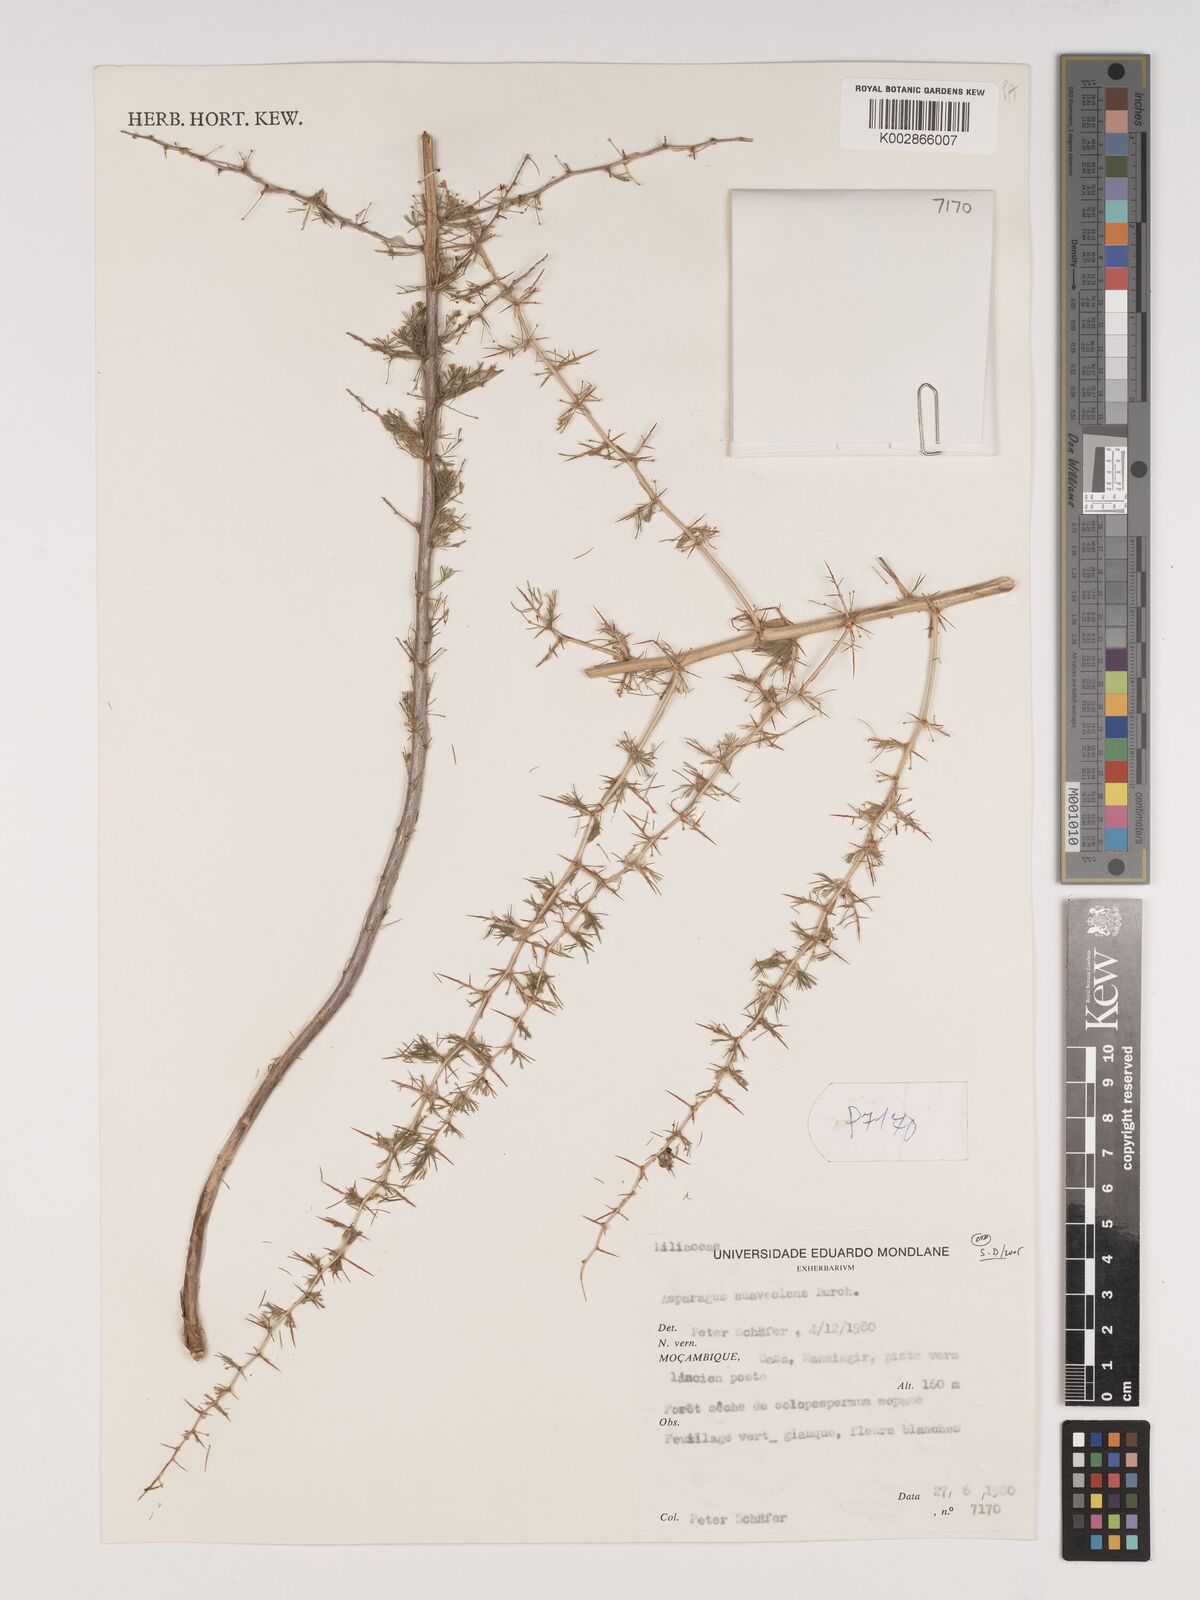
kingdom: Plantae
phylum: Tracheophyta
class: Liliopsida
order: Asparagales
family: Asparagaceae
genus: Asparagus
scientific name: Asparagus suaveolens
